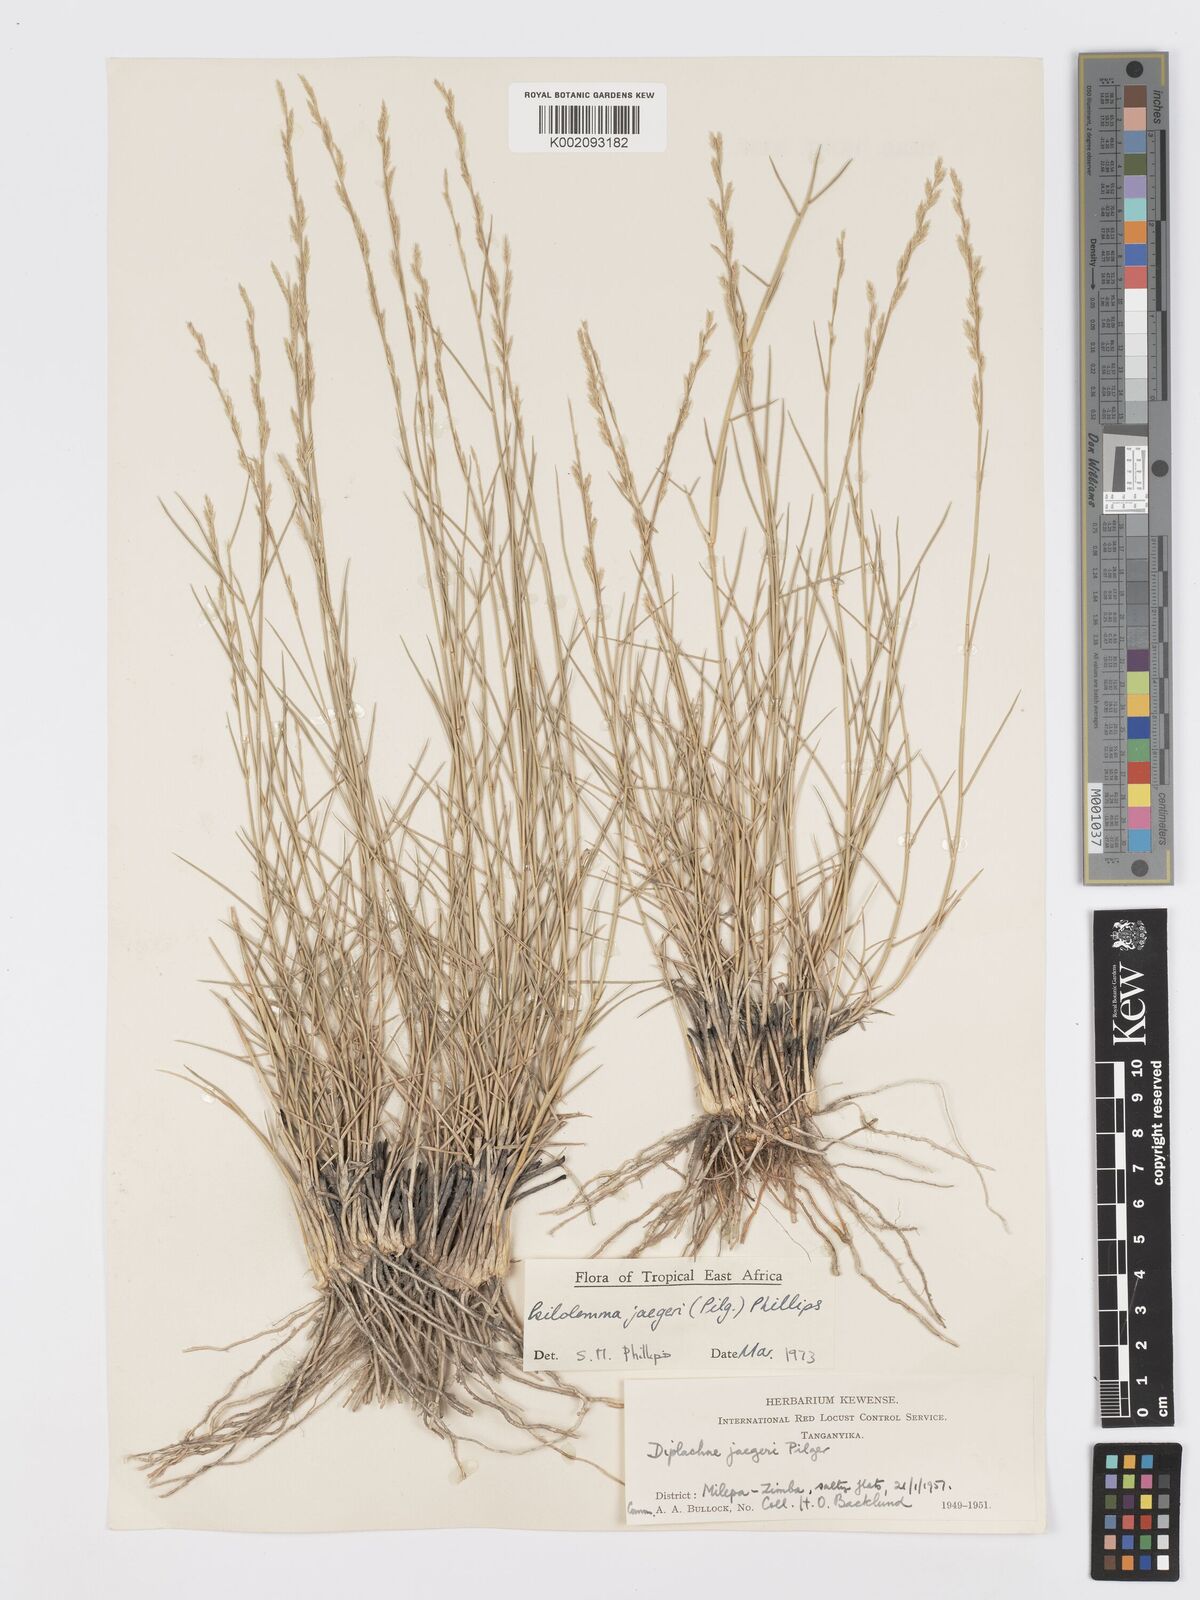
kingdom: Plantae
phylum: Tracheophyta
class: Liliopsida
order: Poales
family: Poaceae
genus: Psilolemma
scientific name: Psilolemma jaegeri
